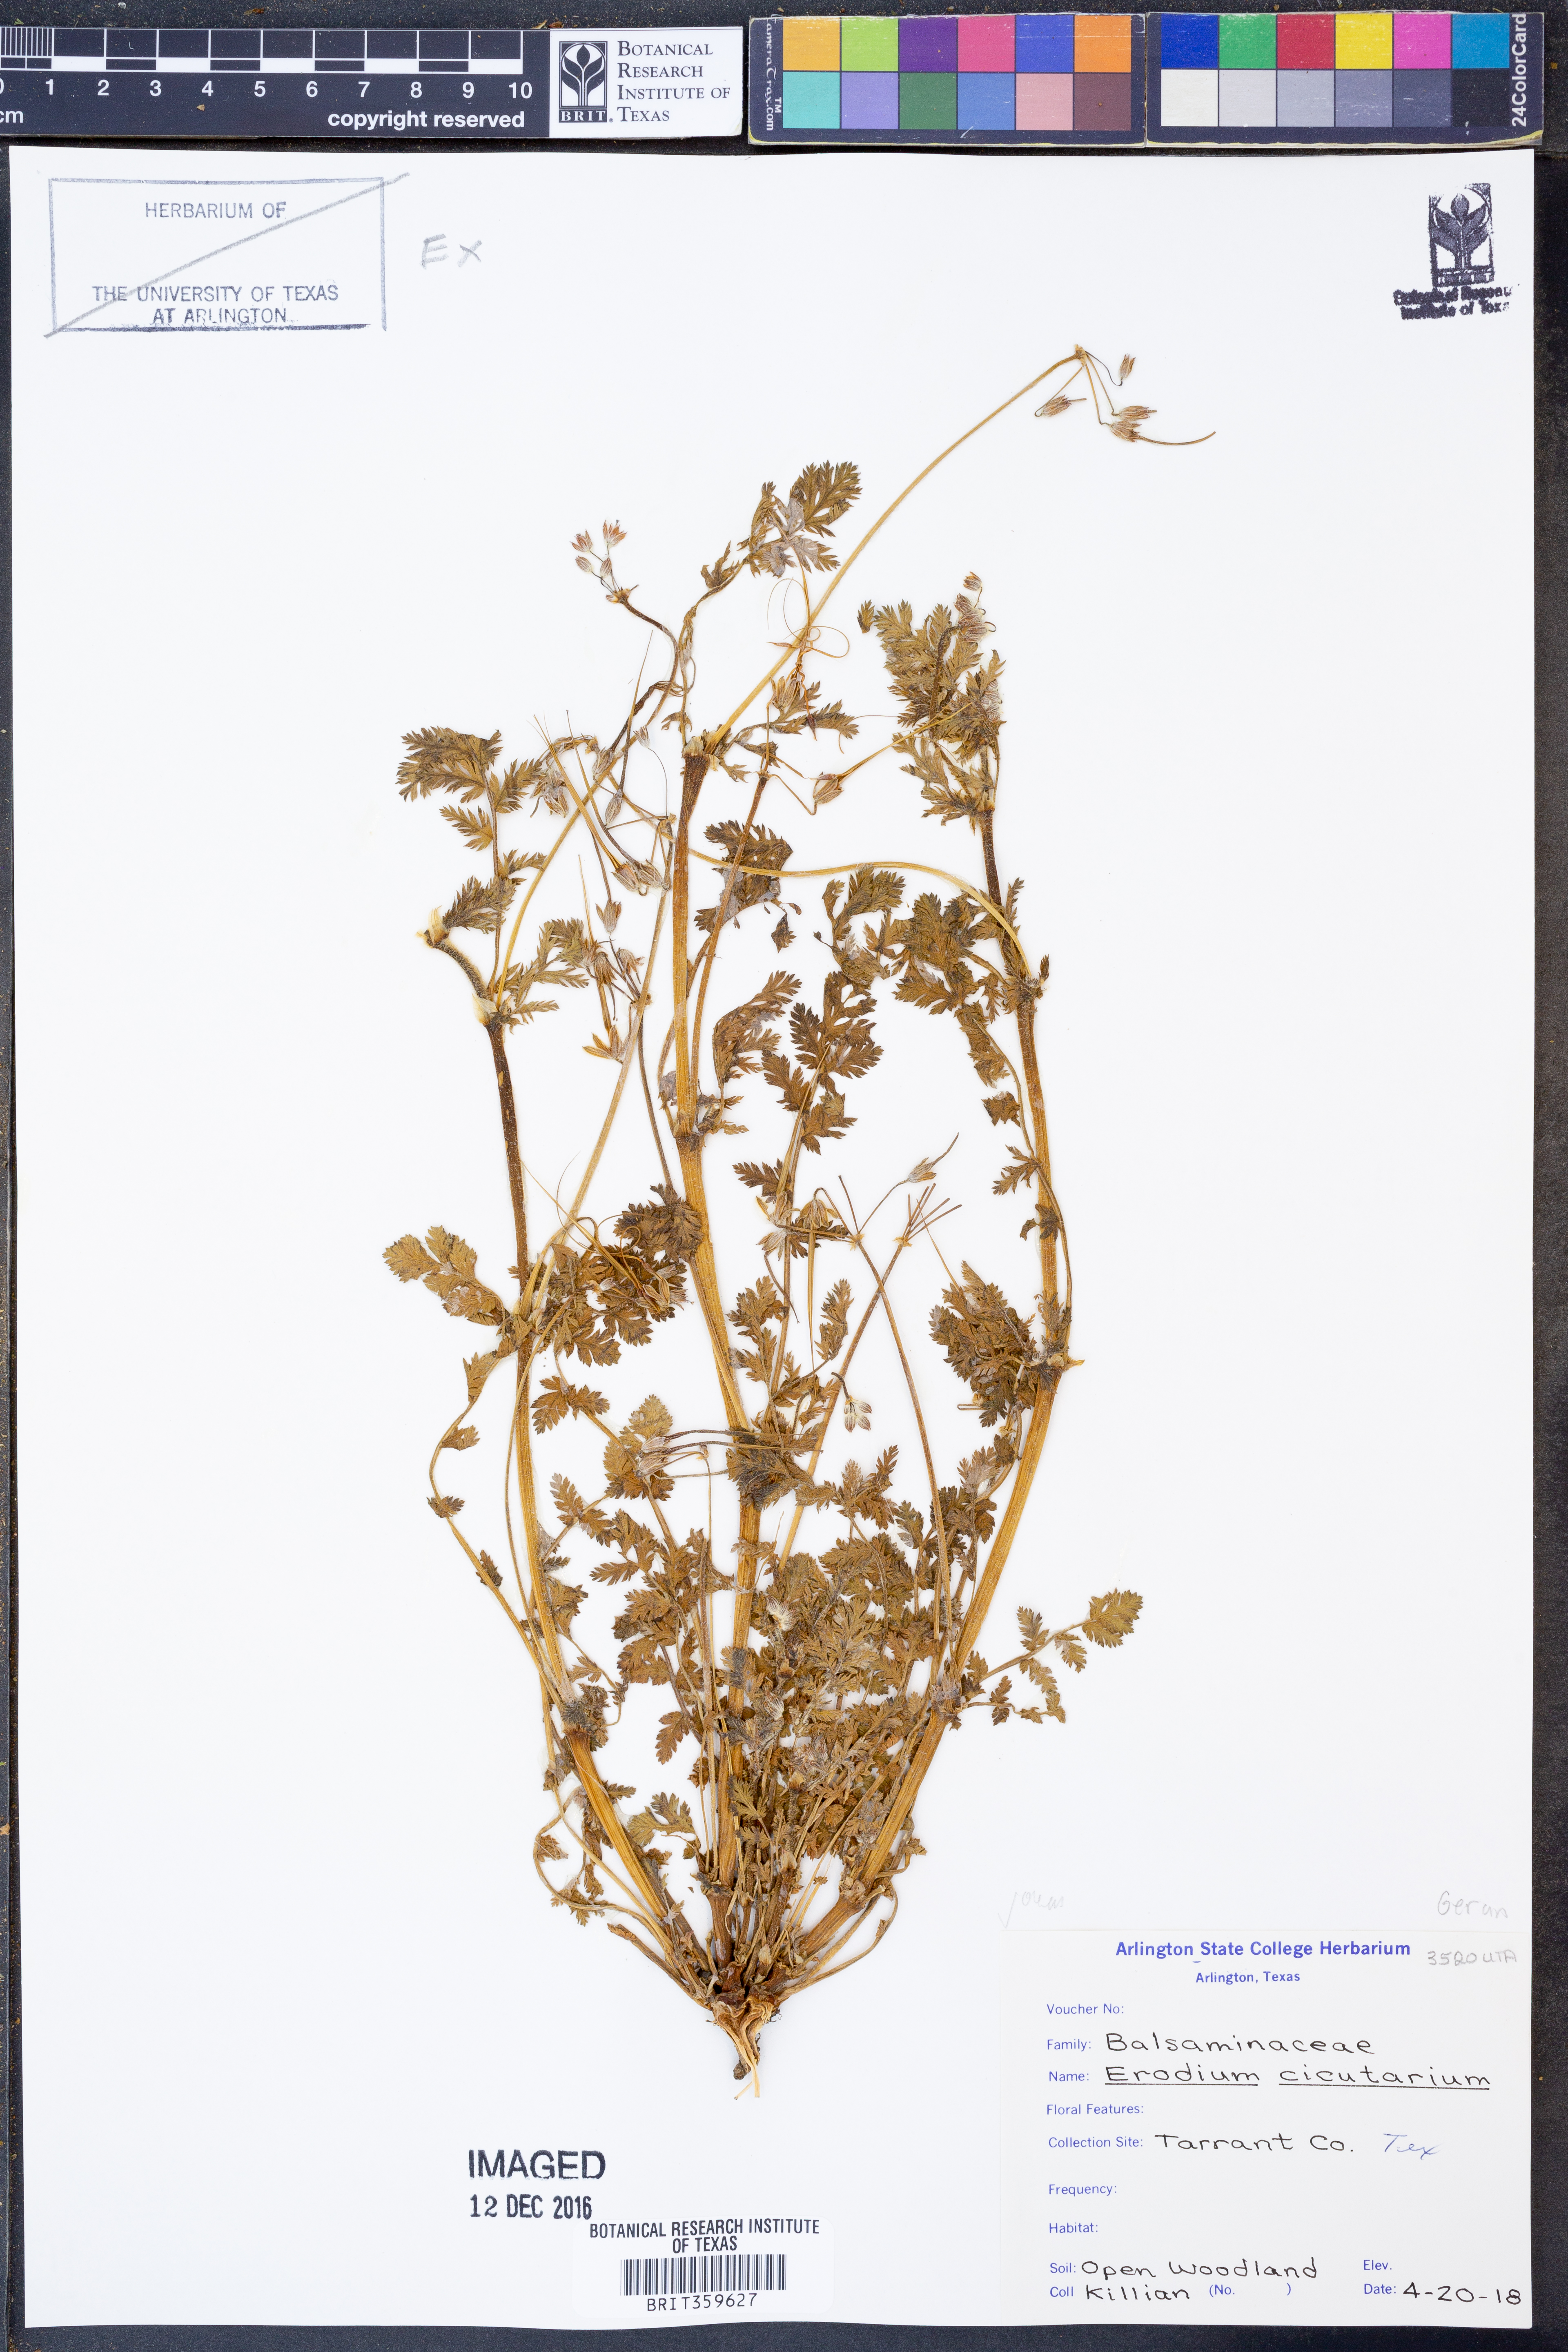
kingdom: Plantae
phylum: Tracheophyta
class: Magnoliopsida
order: Geraniales
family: Geraniaceae
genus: Erodium
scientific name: Erodium cicutarium
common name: Common stork's-bill
